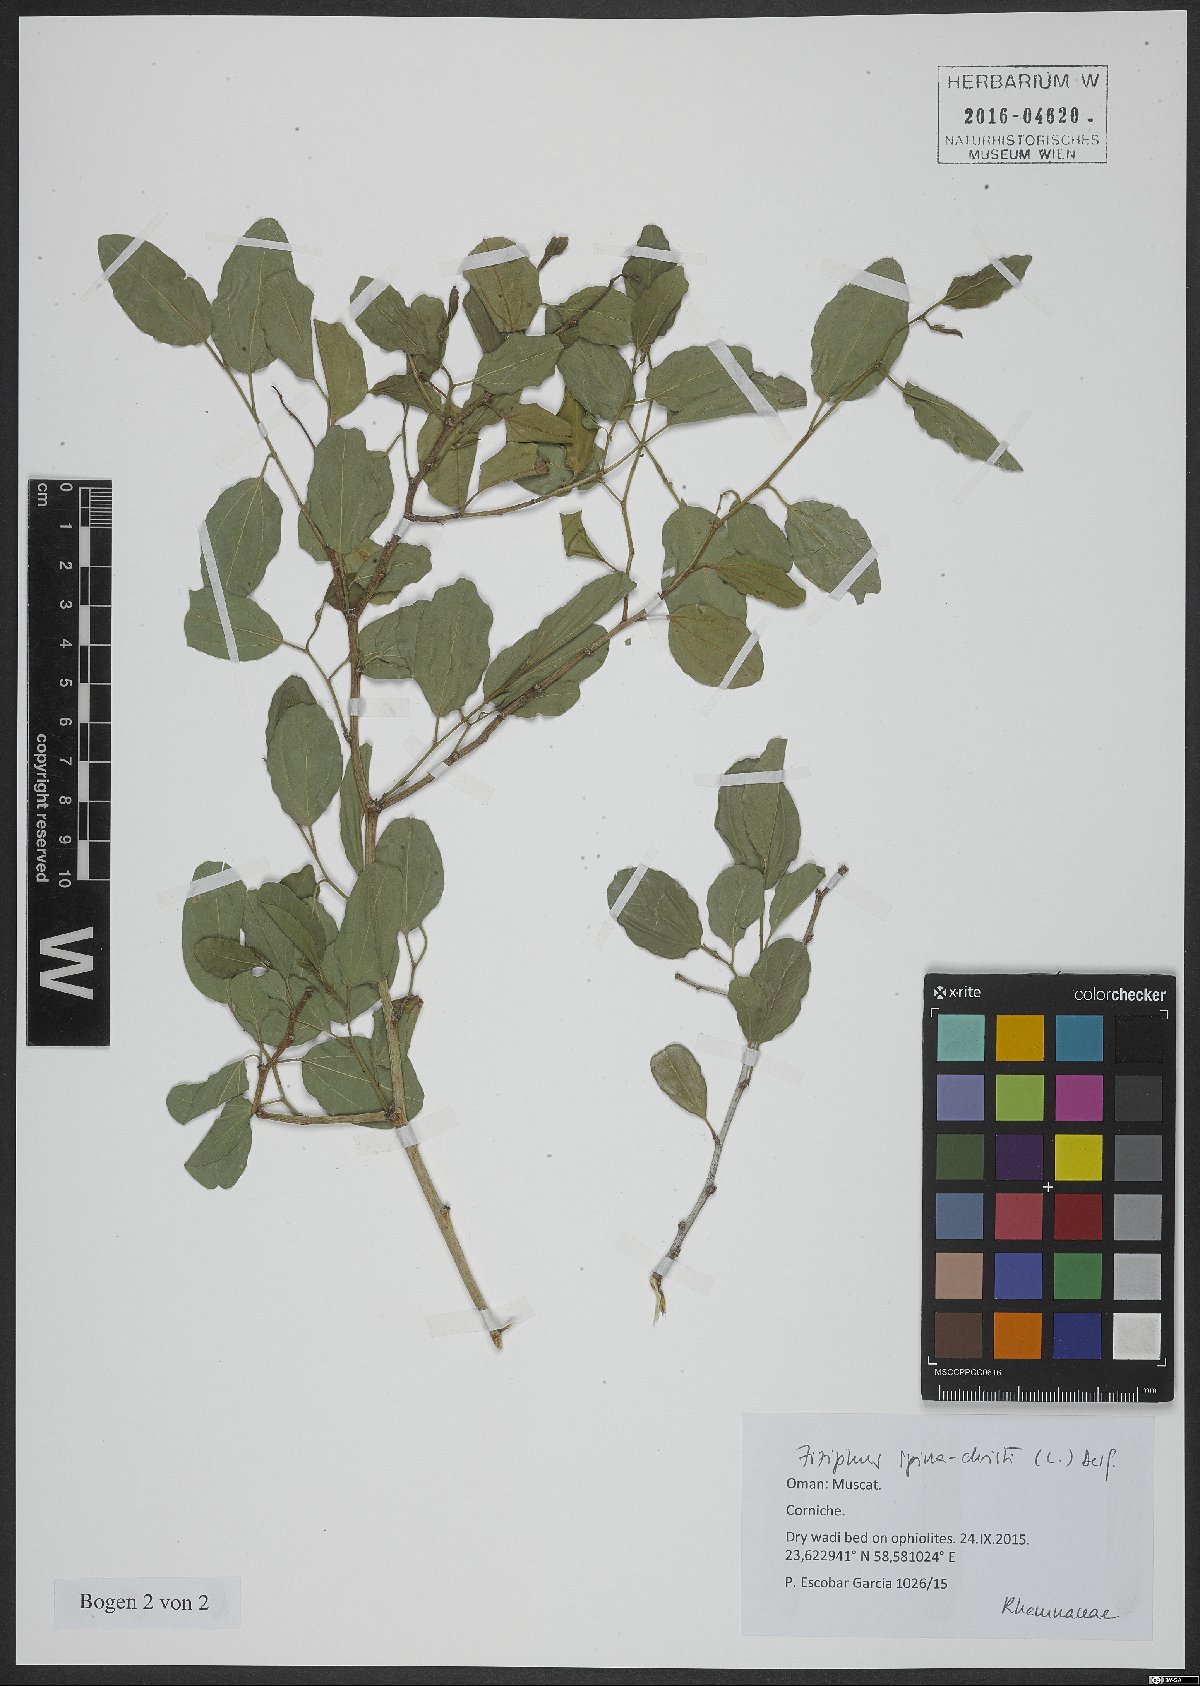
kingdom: Plantae
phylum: Tracheophyta
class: Magnoliopsida
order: Rosales
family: Rhamnaceae
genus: Ziziphus
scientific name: Ziziphus spina-christi
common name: Syrian christ-thorn
